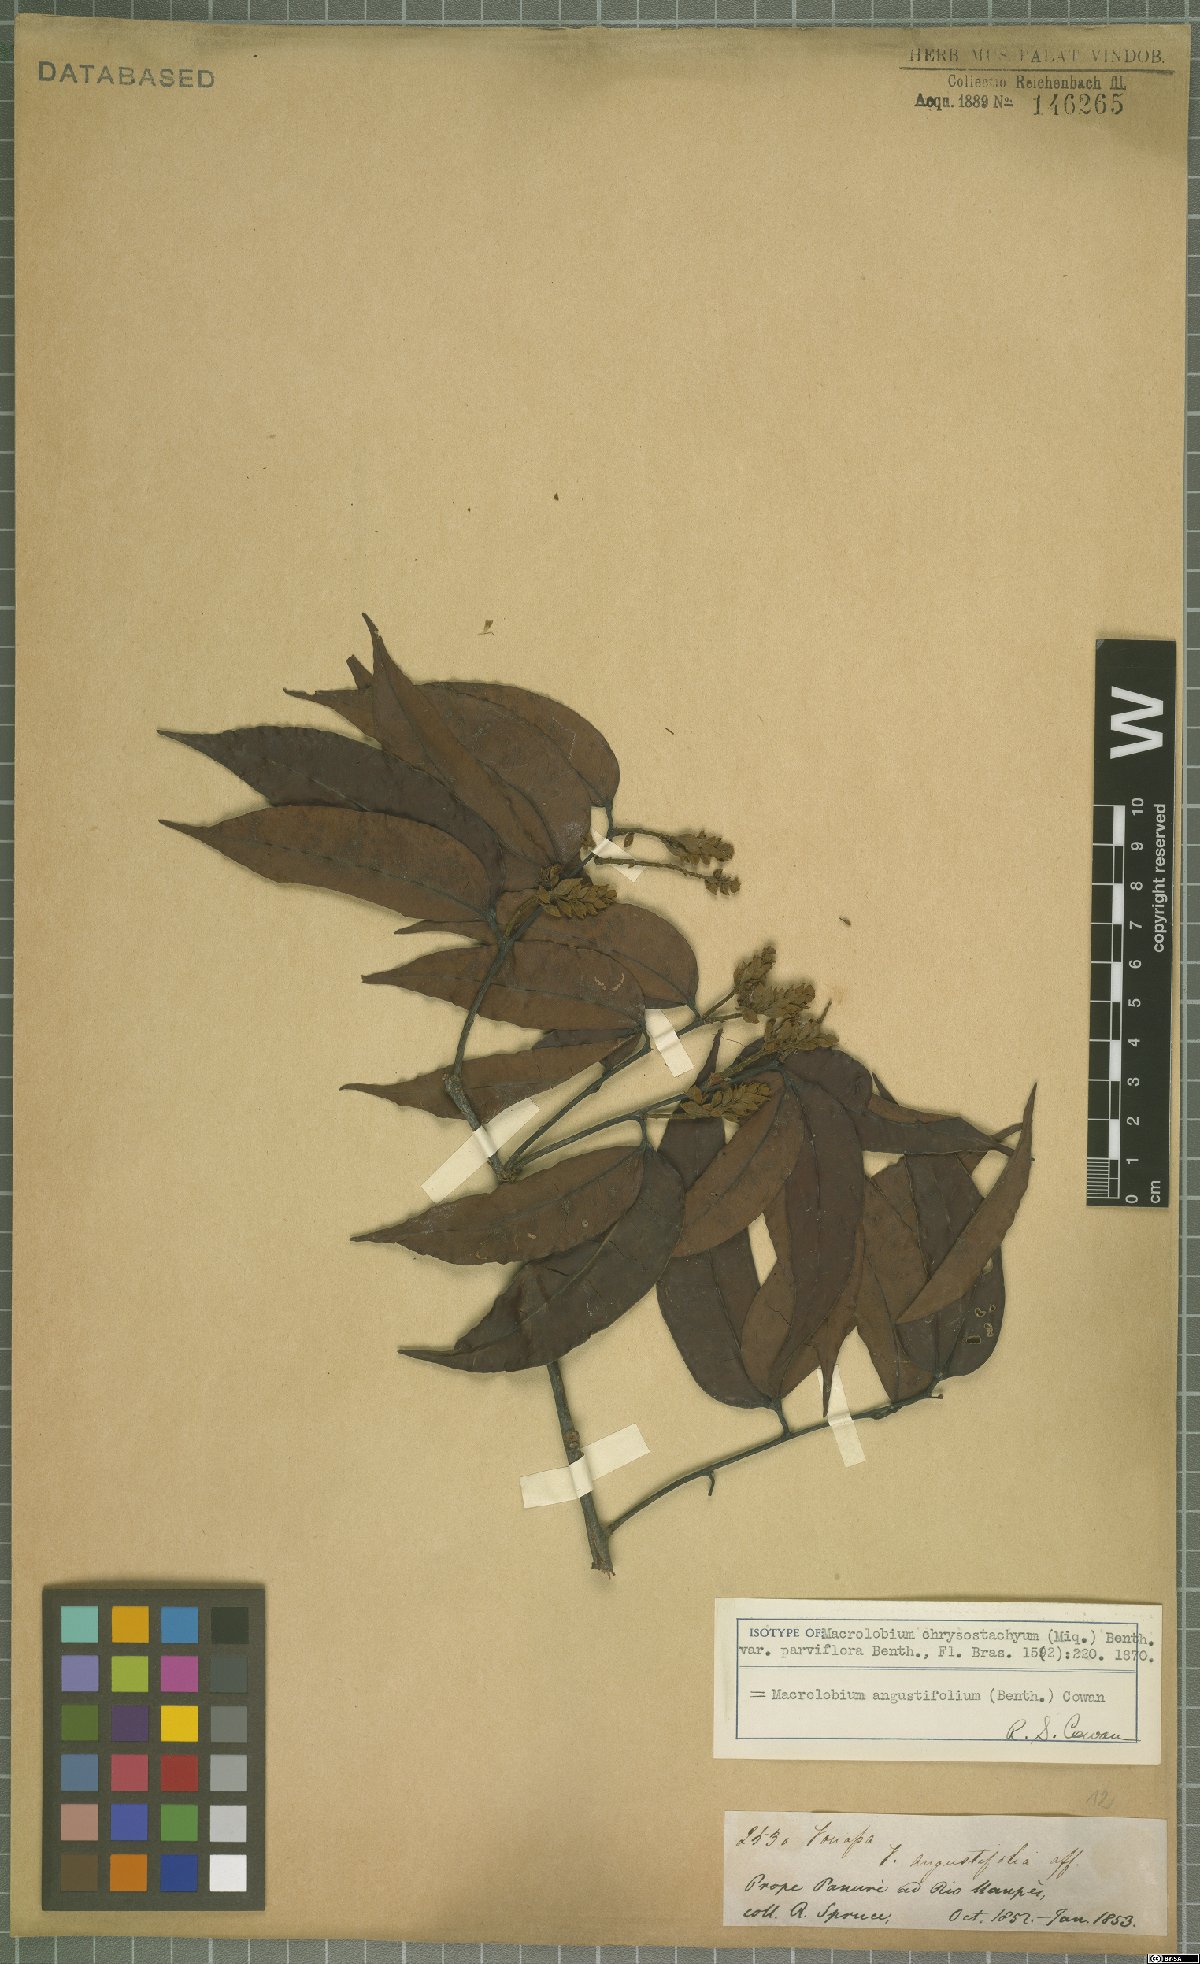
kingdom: Plantae
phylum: Tracheophyta
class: Magnoliopsida
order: Fabales
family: Fabaceae
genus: Macrolobium
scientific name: Macrolobium angustifolium
